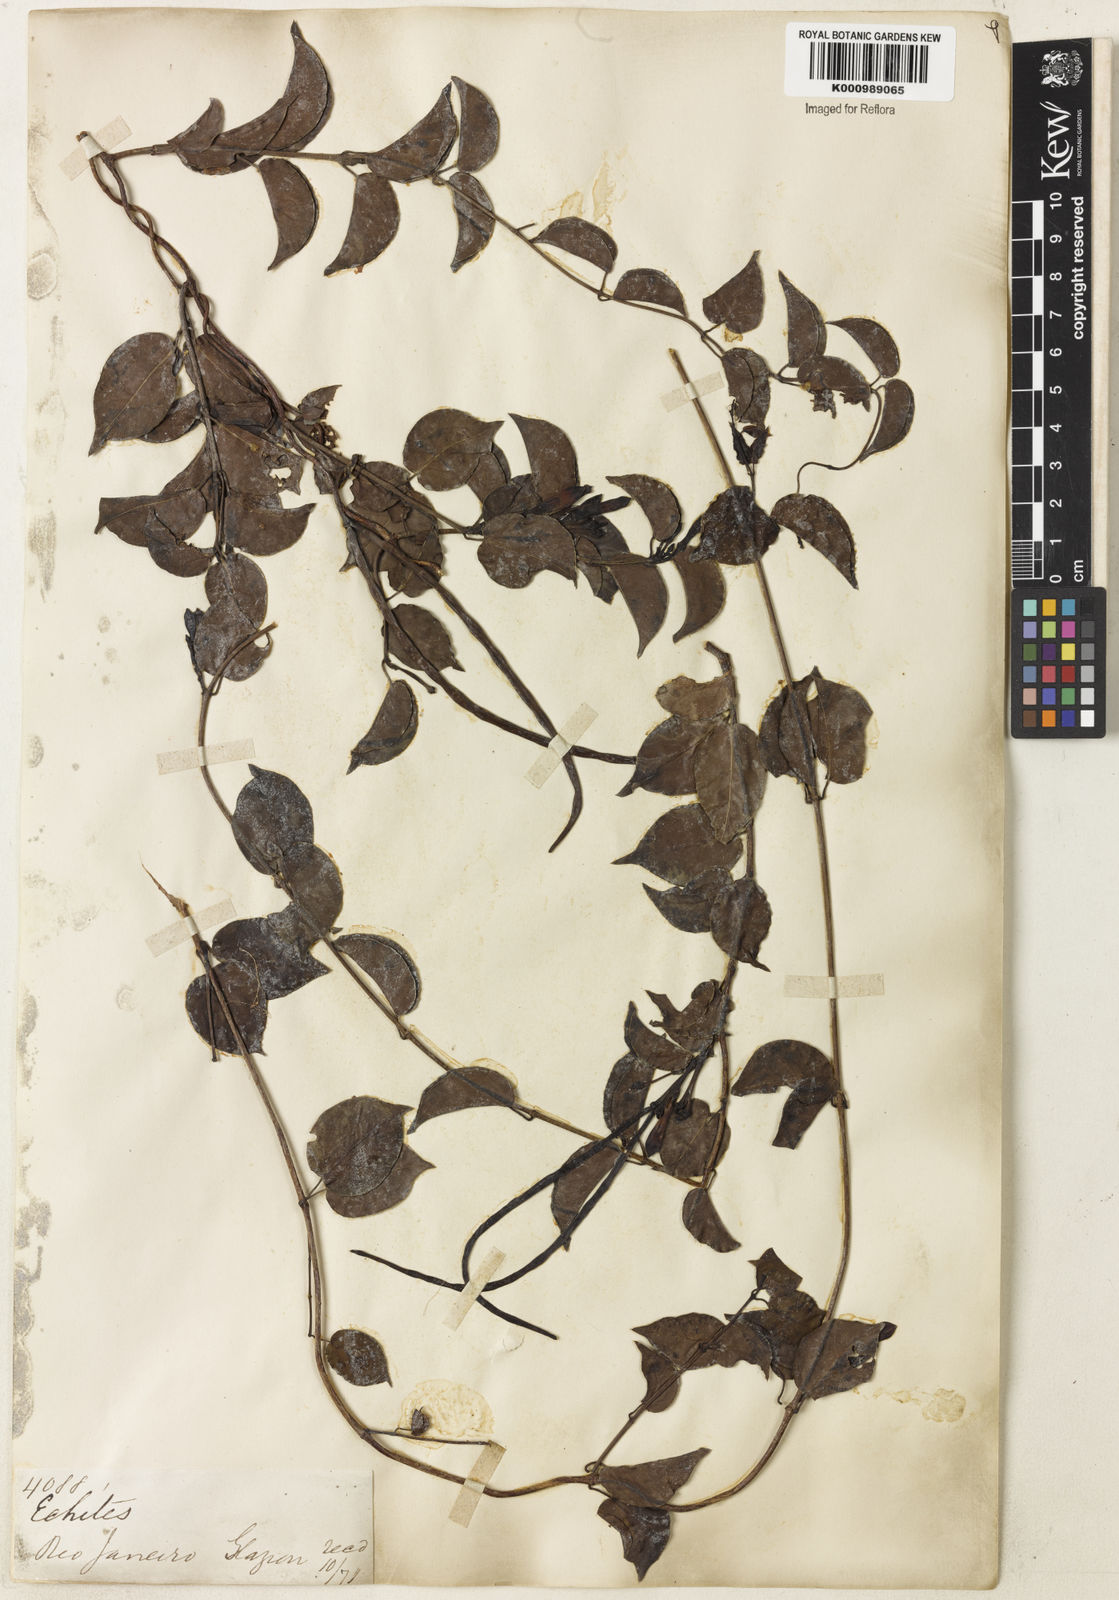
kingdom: Plantae
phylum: Tracheophyta
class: Magnoliopsida
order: Gentianales
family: Apocynaceae
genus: Mandevilla
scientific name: Mandevilla funiformis
